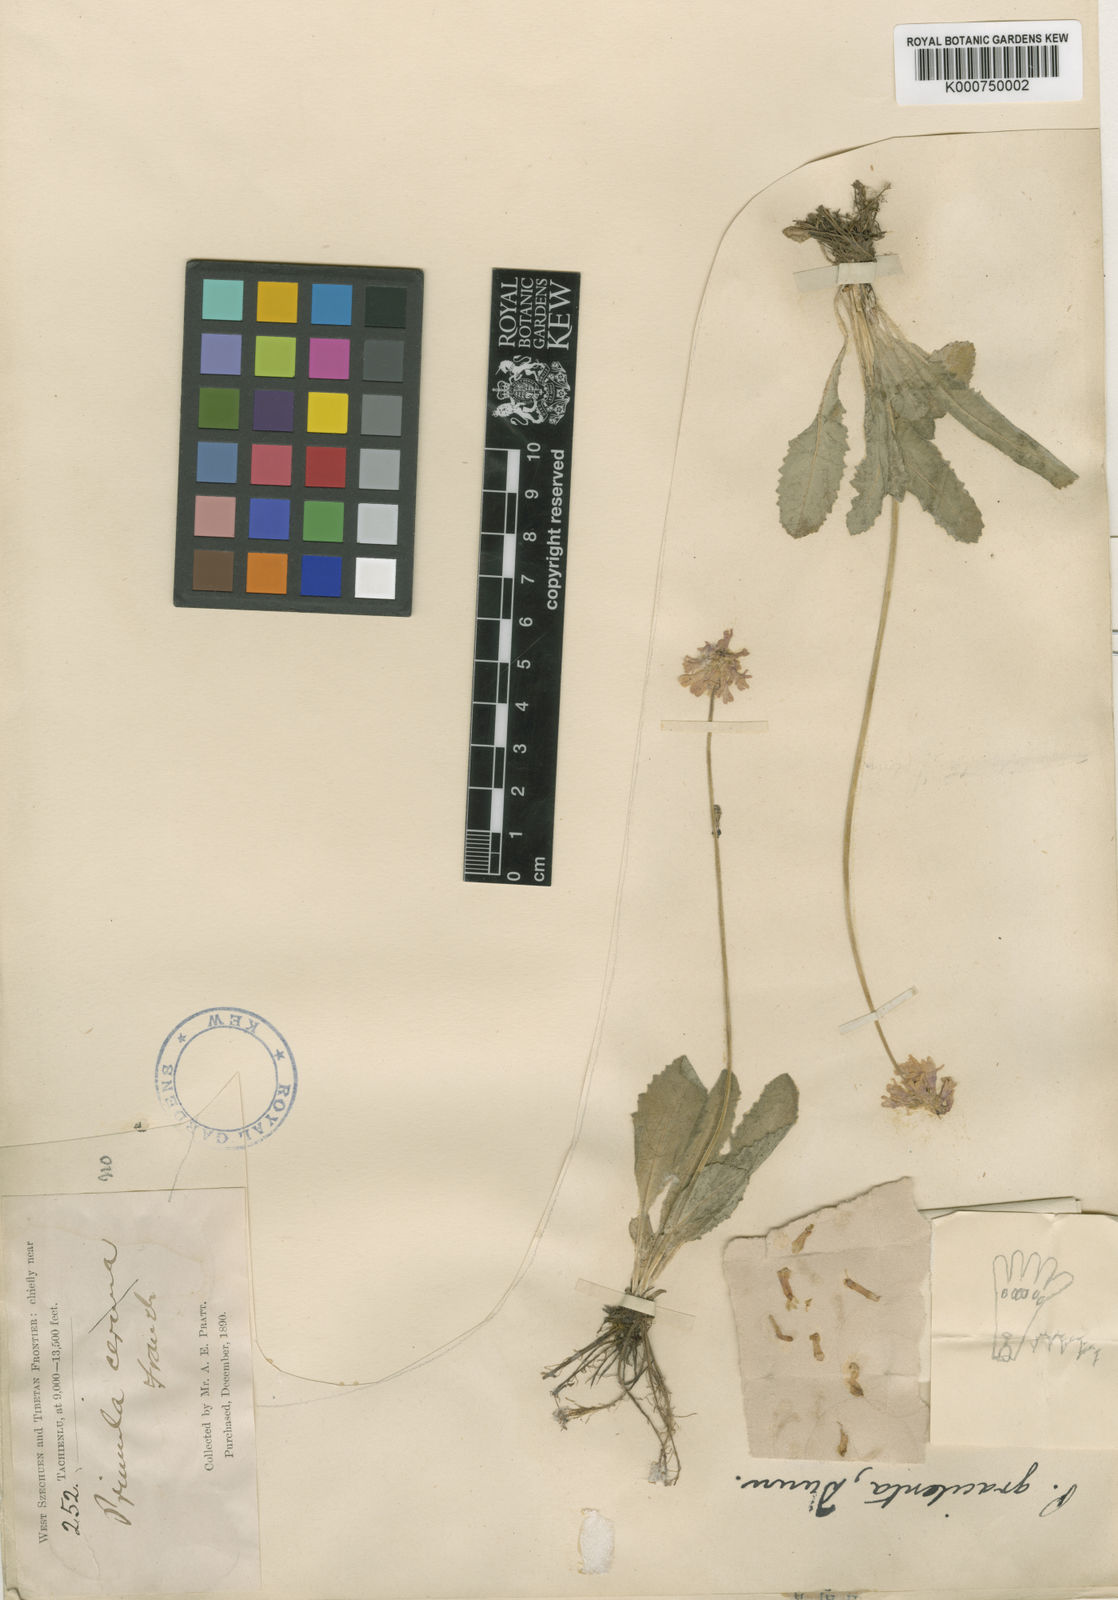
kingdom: Plantae
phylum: Tracheophyta
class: Magnoliopsida
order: Ericales
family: Primulaceae
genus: Primula
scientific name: Primula gracilenta
